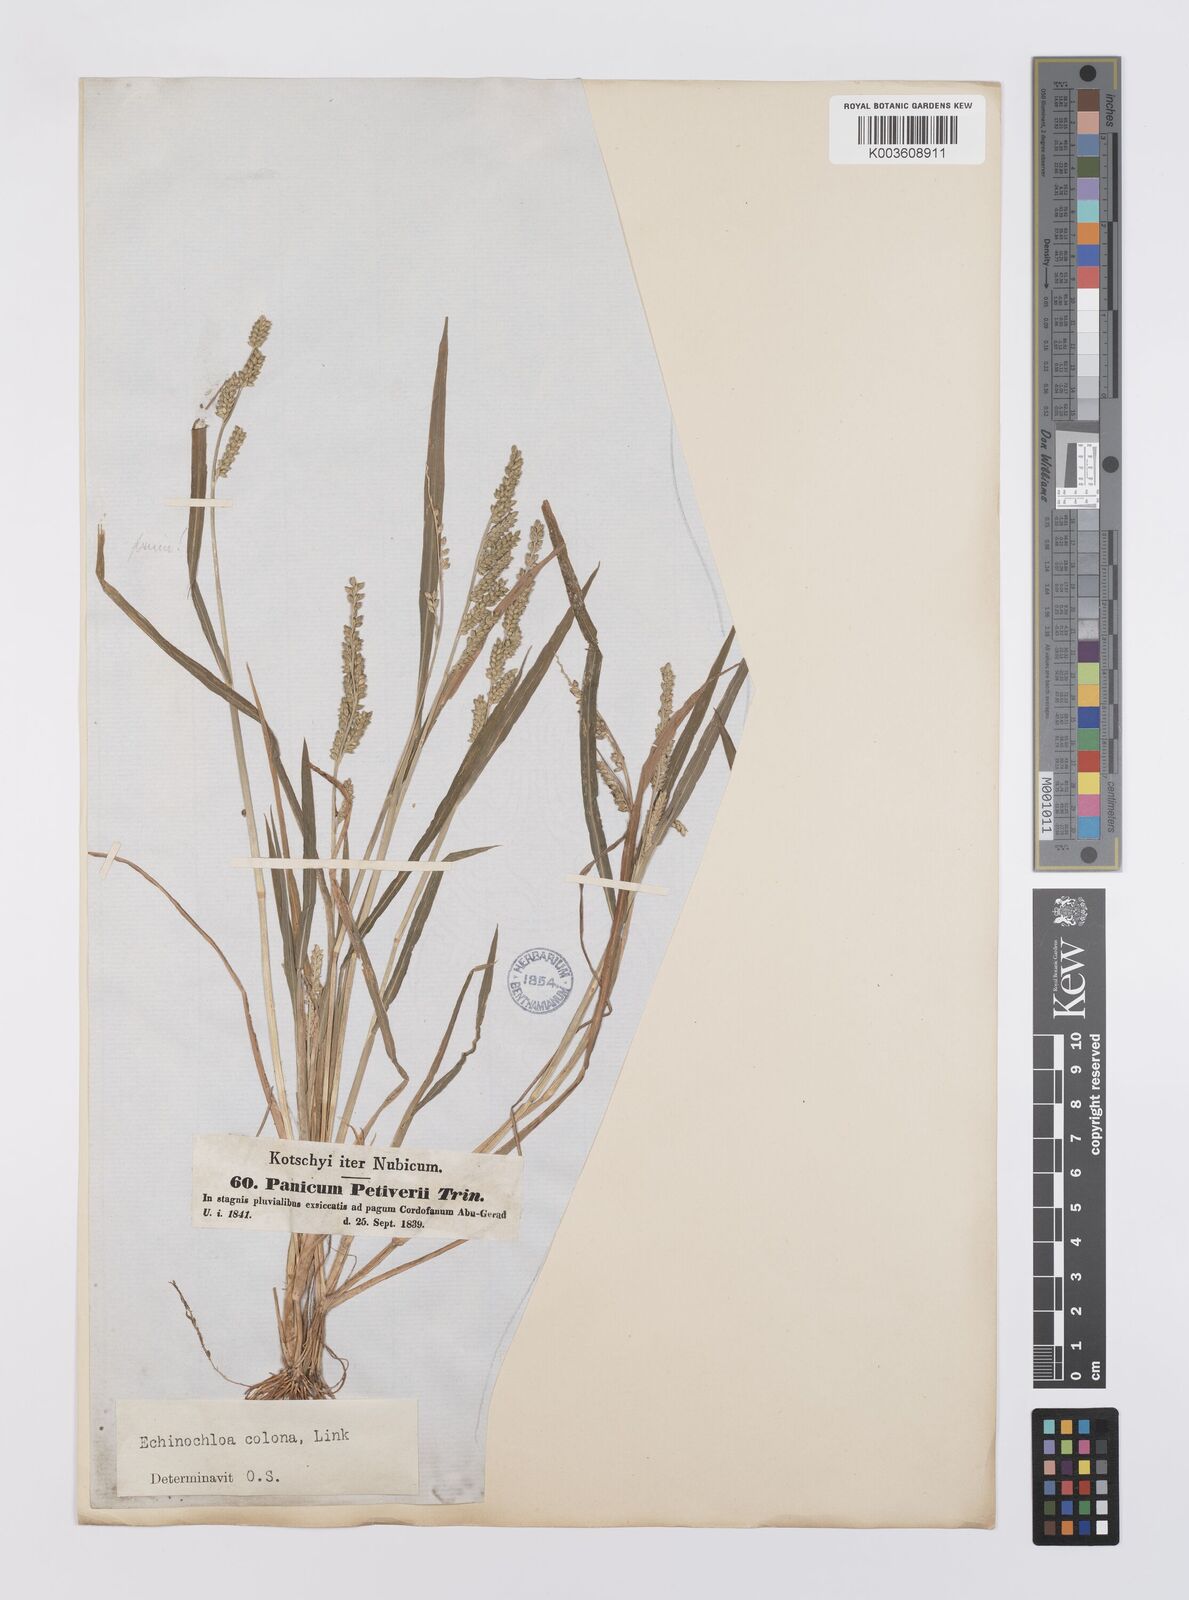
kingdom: Plantae
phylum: Tracheophyta
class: Liliopsida
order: Poales
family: Poaceae
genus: Echinochloa
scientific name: Echinochloa colonum
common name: Jungle rice
